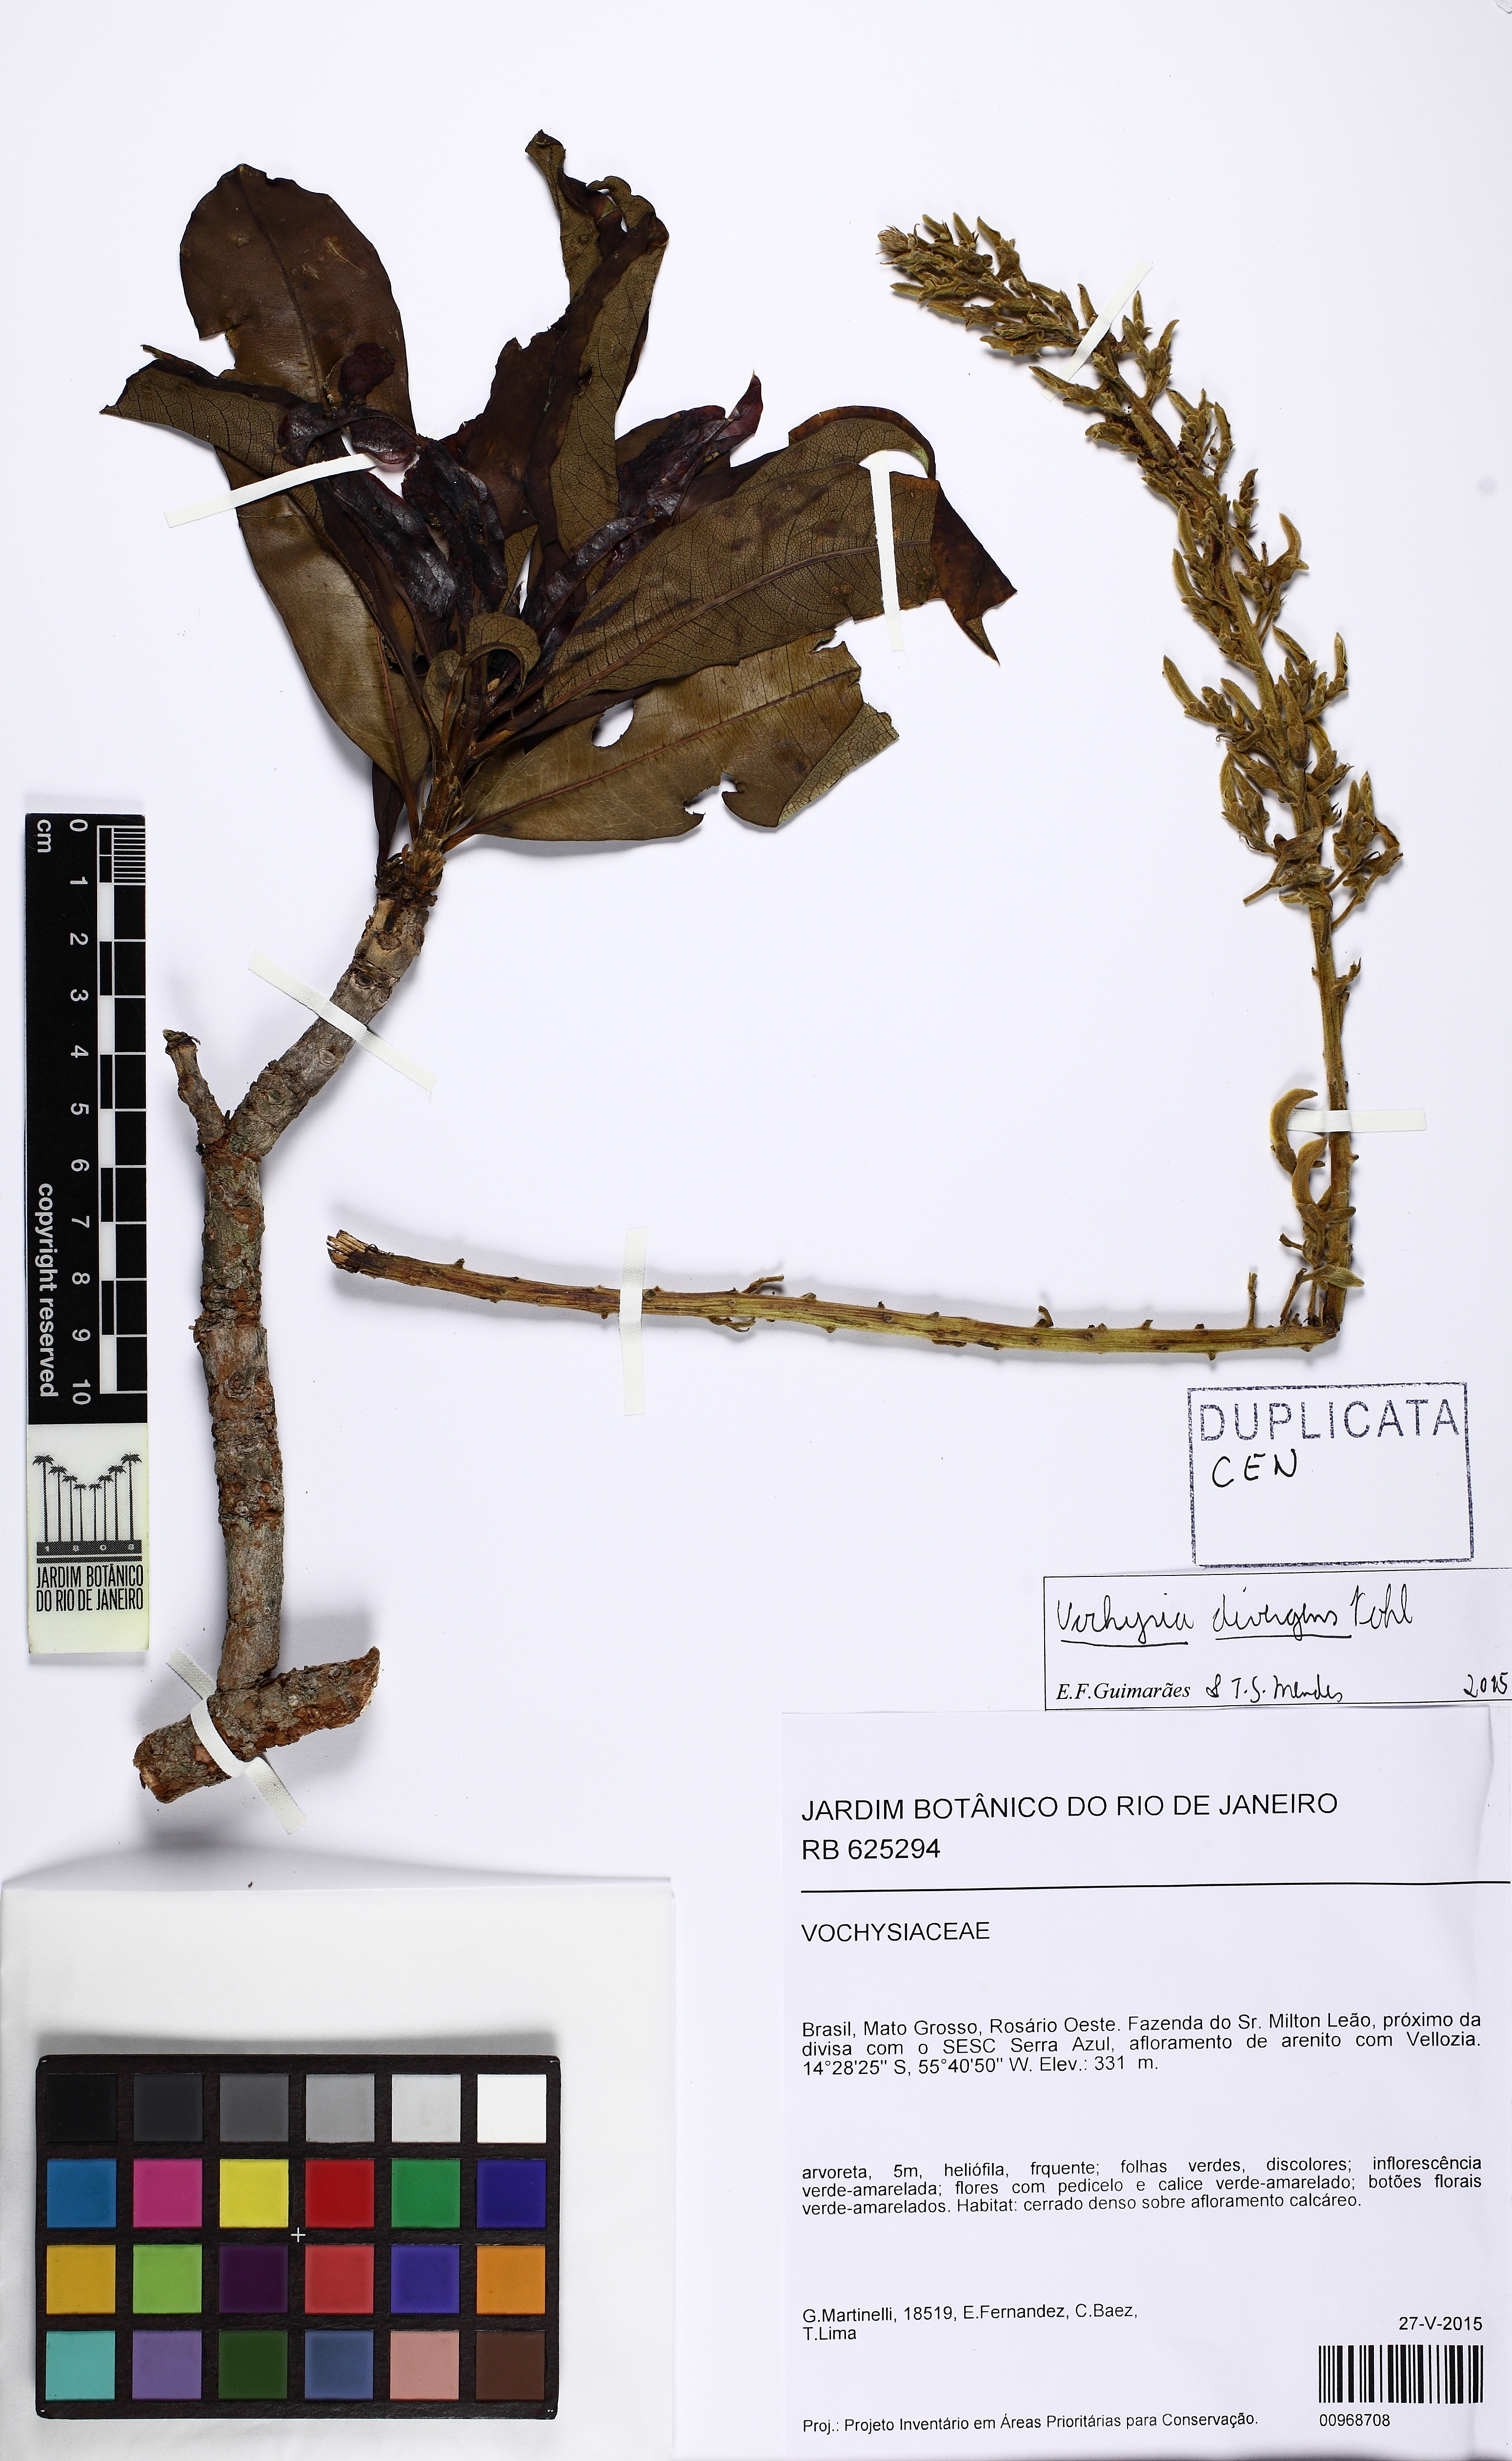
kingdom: Plantae
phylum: Tracheophyta
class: Magnoliopsida
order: Myrtales
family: Vochysiaceae
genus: Vochysia
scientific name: Vochysia divergens
